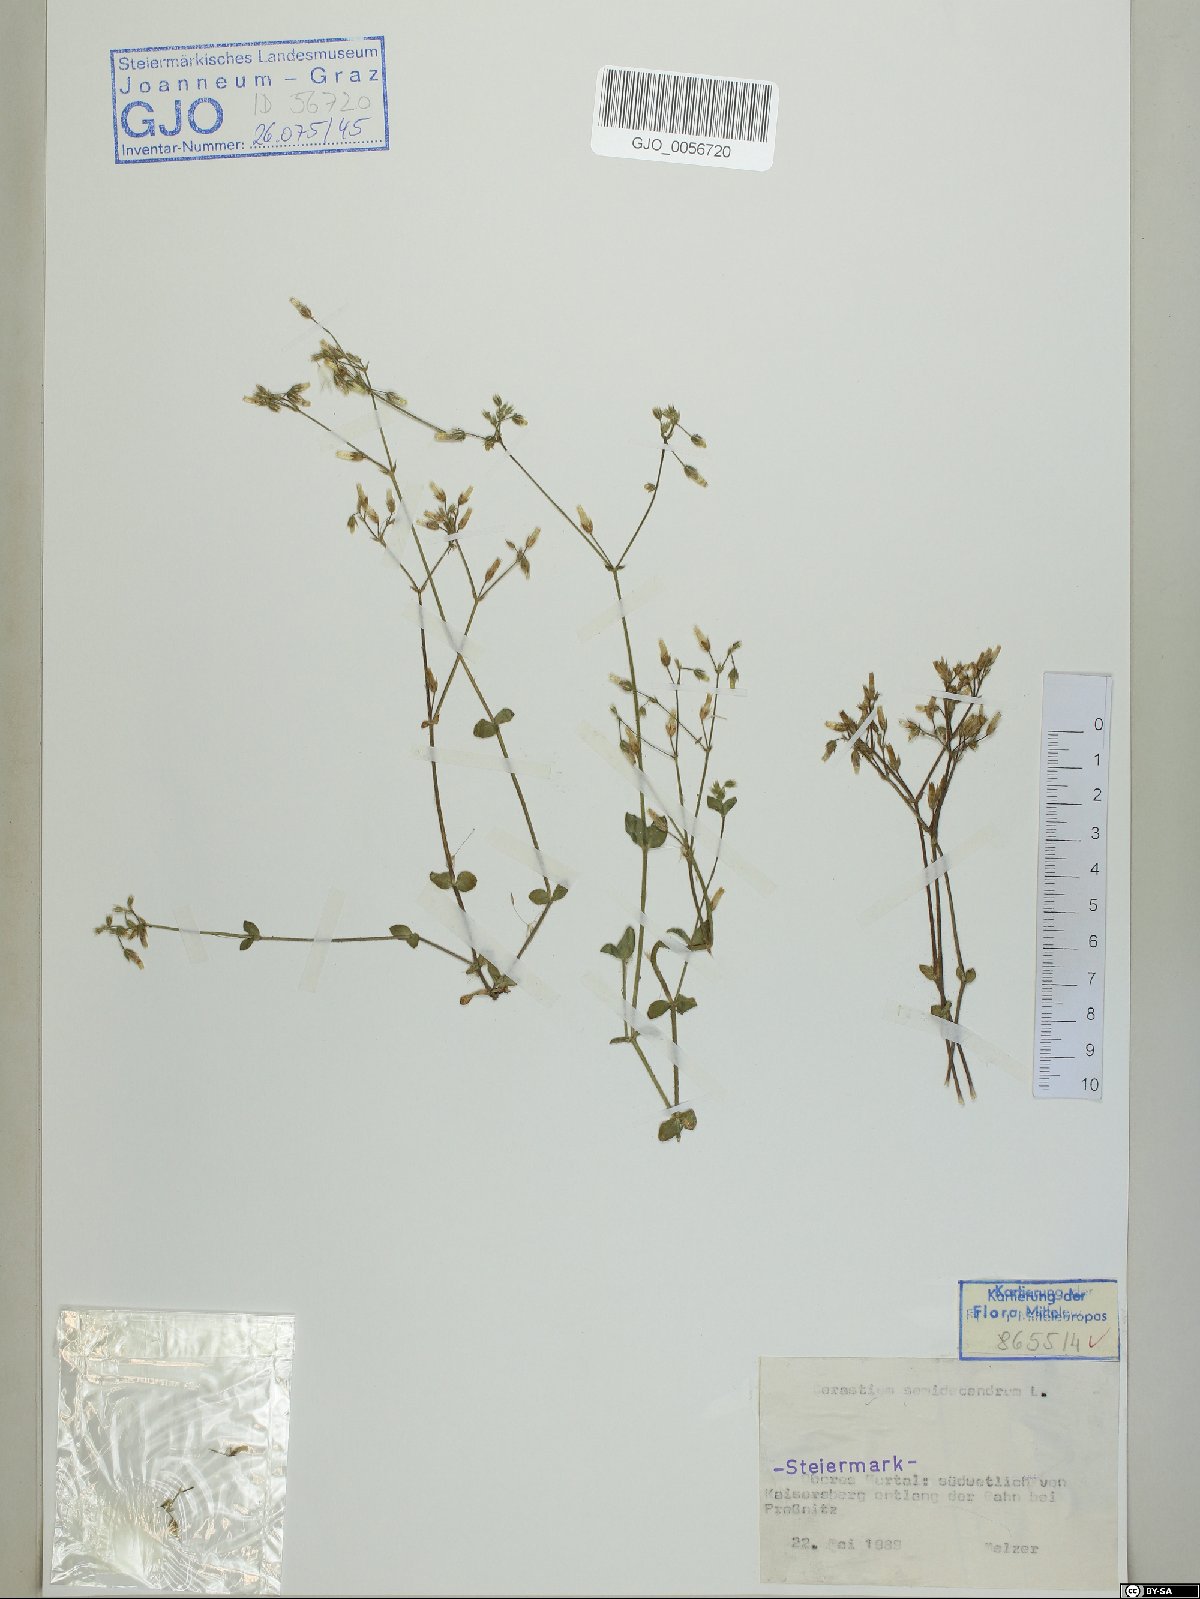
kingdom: Plantae
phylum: Tracheophyta
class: Magnoliopsida
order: Caryophyllales
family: Caryophyllaceae
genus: Cerastium
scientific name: Cerastium semidecandrum
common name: Little mouse-ear
